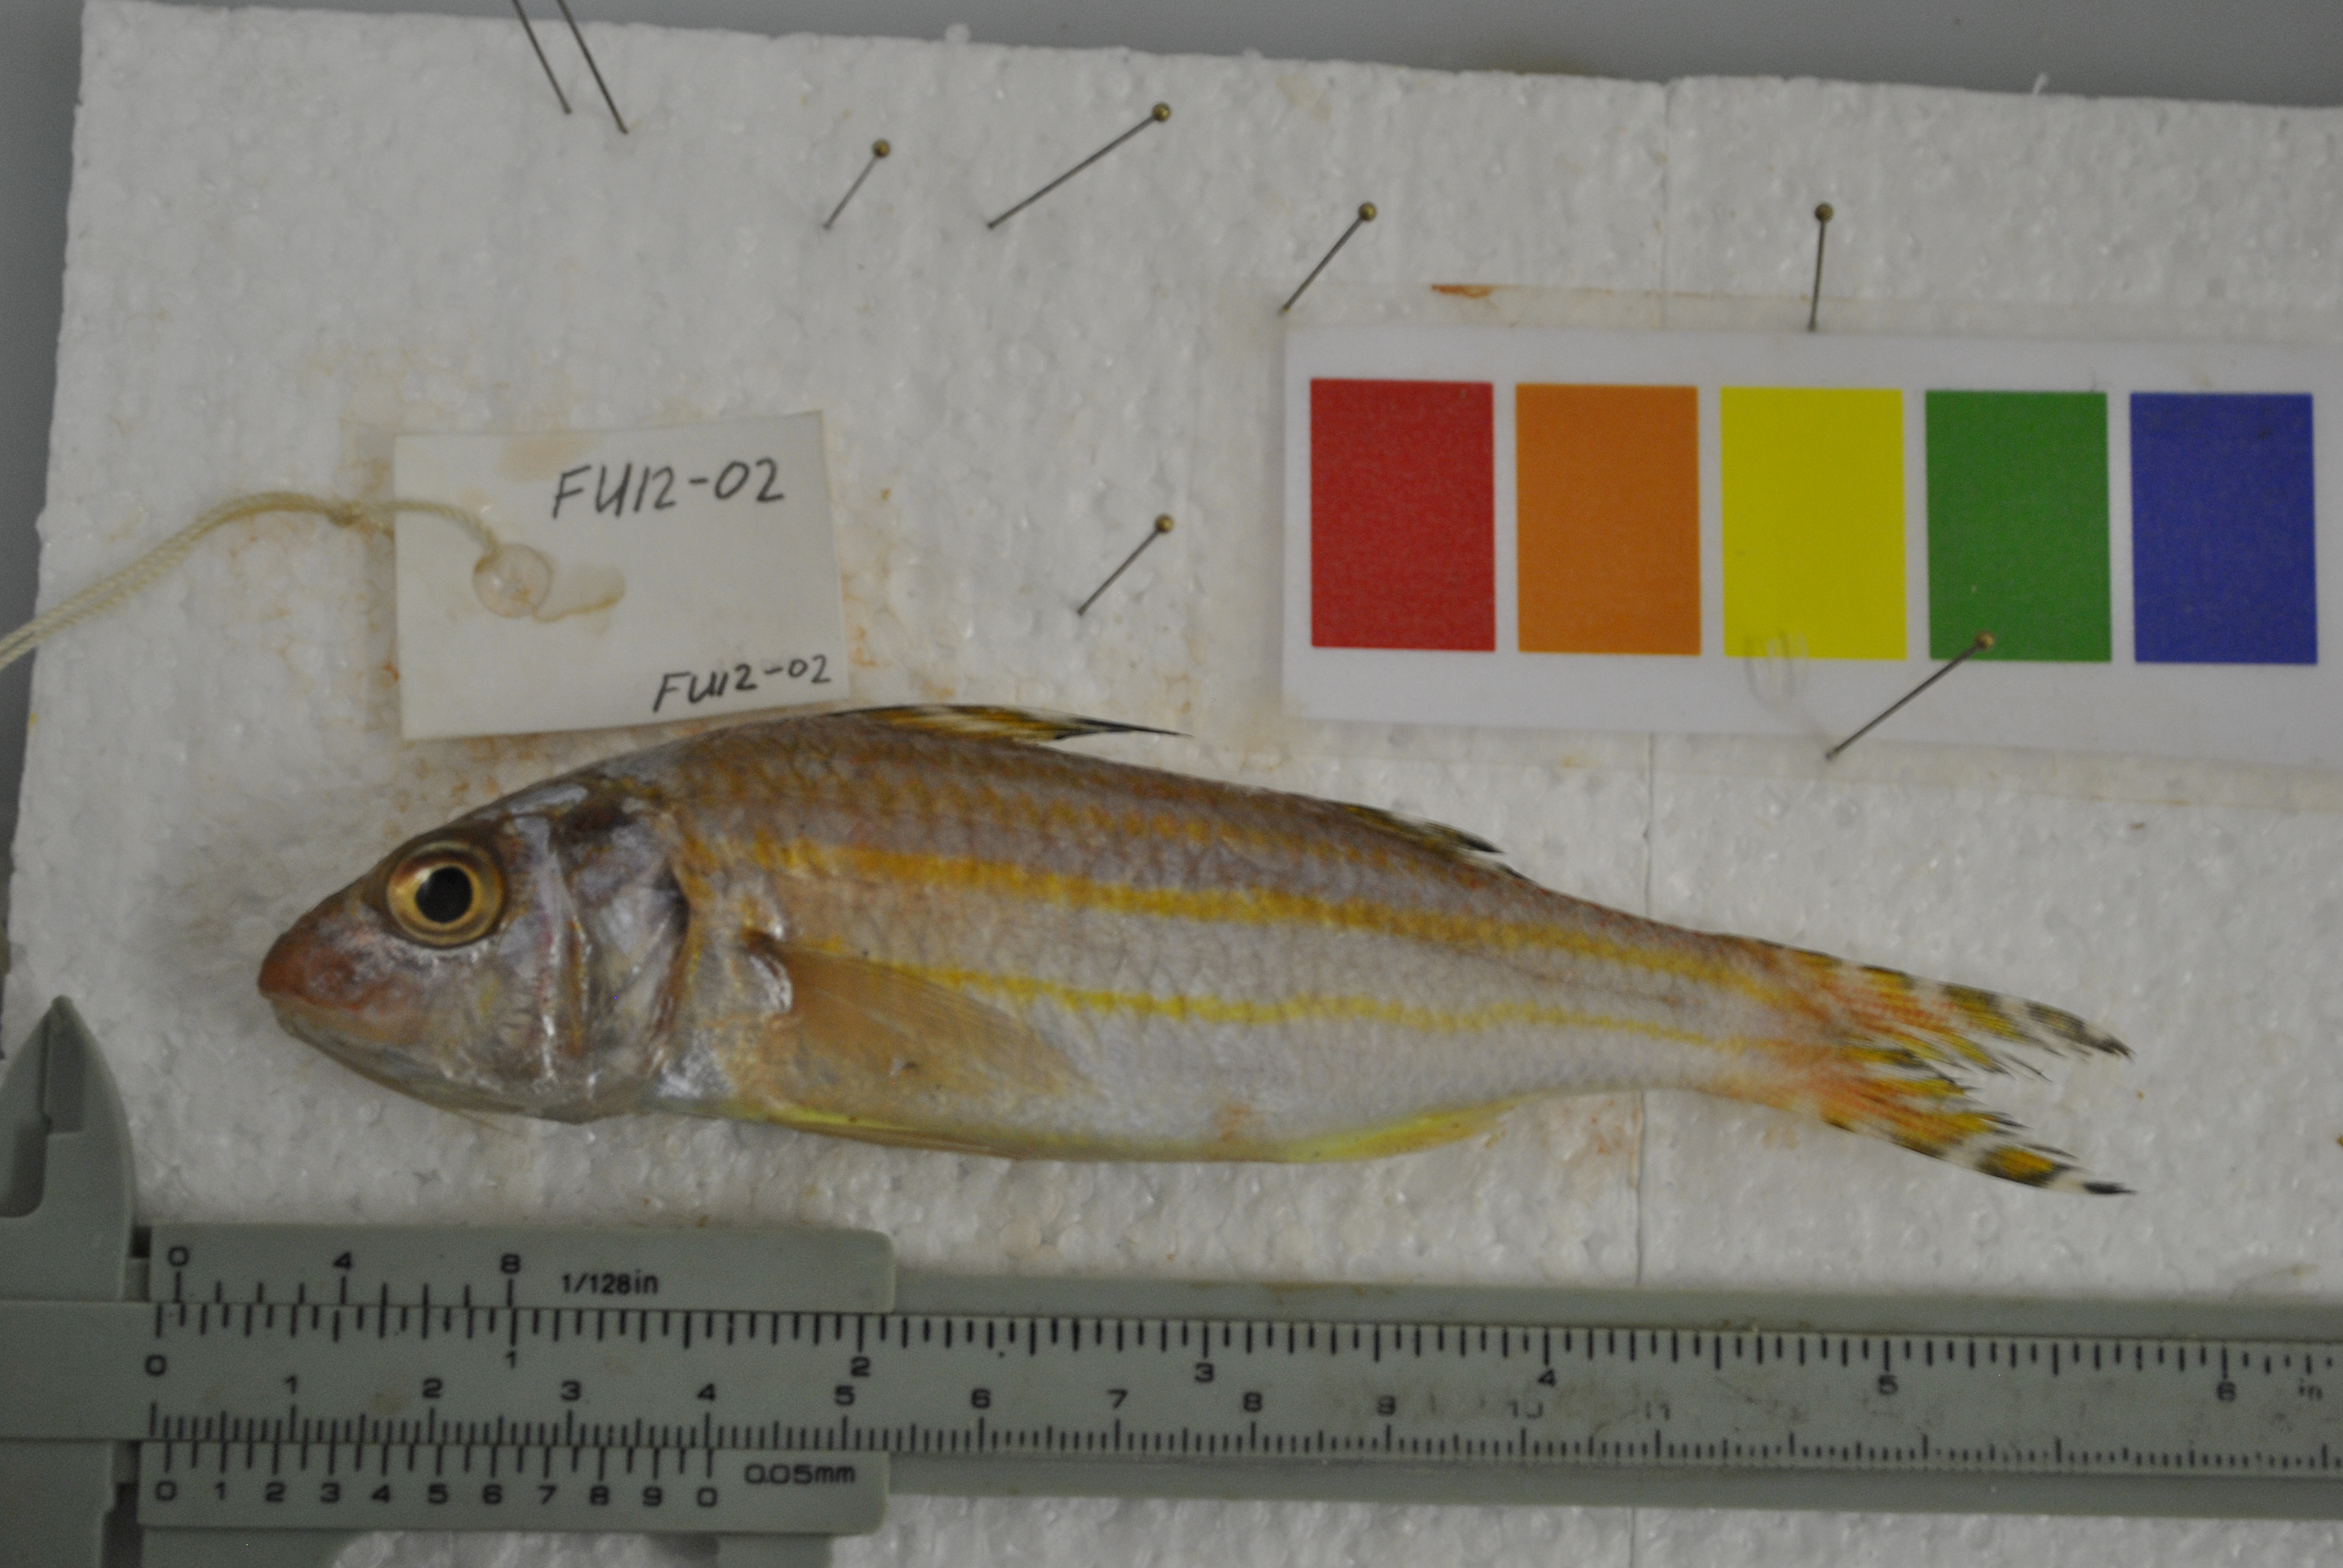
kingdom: Animalia
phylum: Chordata
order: Perciformes
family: Mullidae
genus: Upeneus
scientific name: Upeneus supravittatus
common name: Long-fin goatfish
